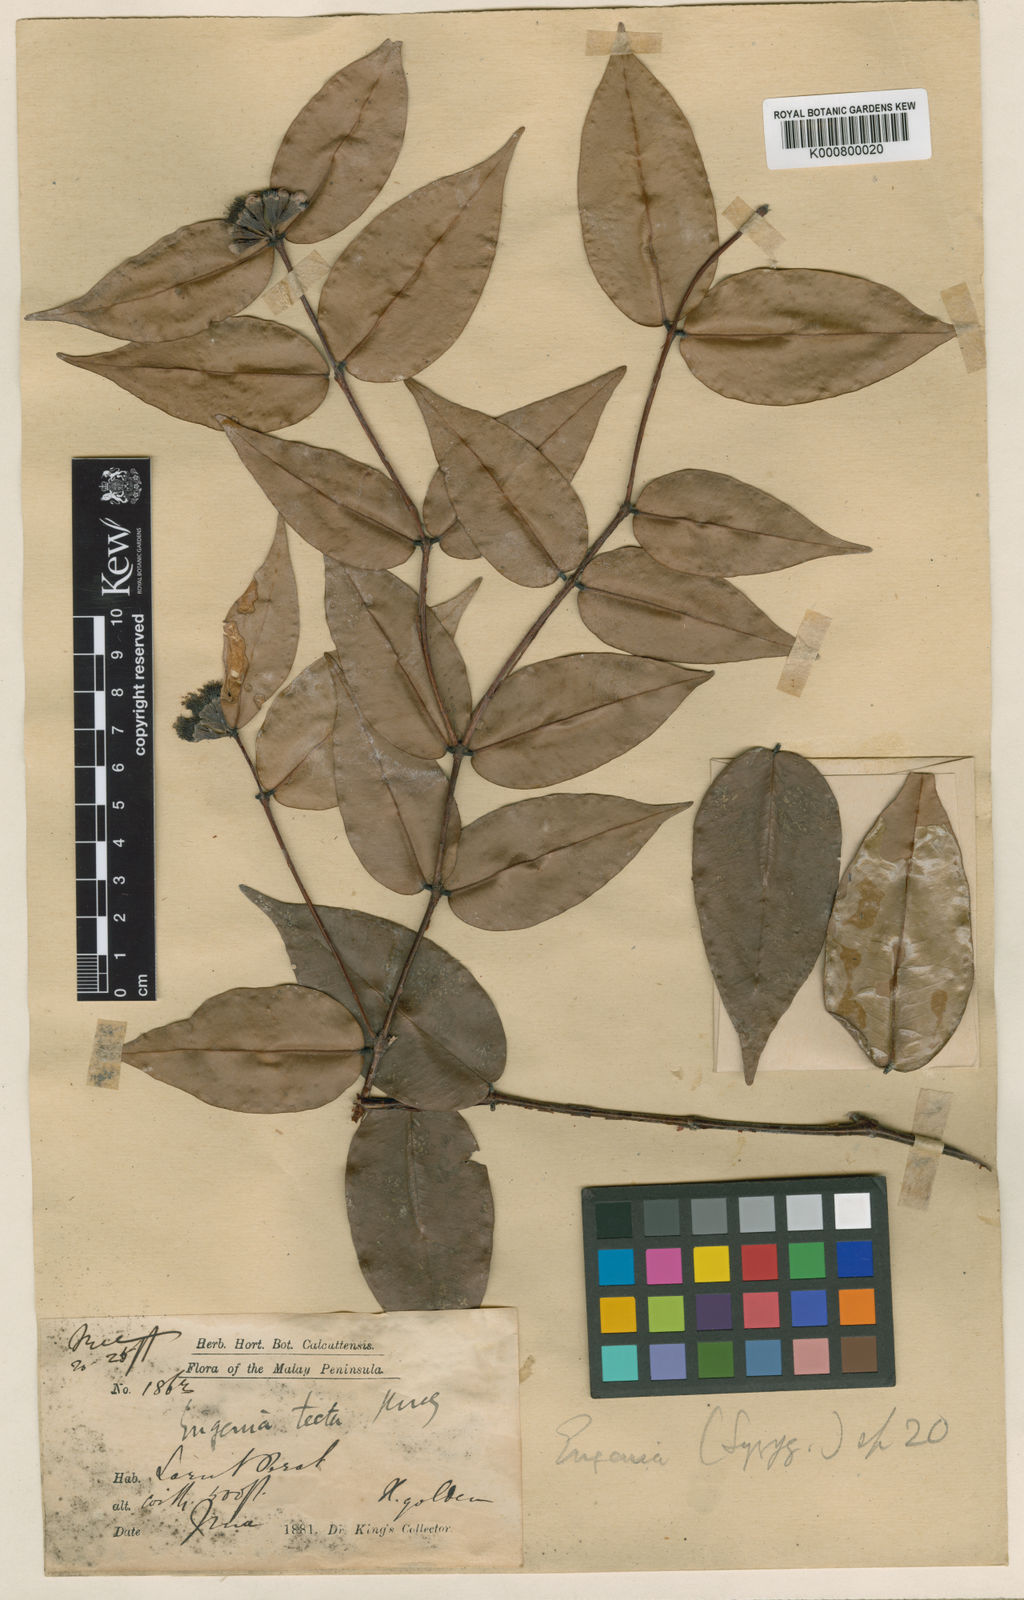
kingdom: Plantae
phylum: Tracheophyta
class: Magnoliopsida
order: Myrtales
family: Myrtaceae
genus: Syzygium
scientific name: Syzygium tectum
